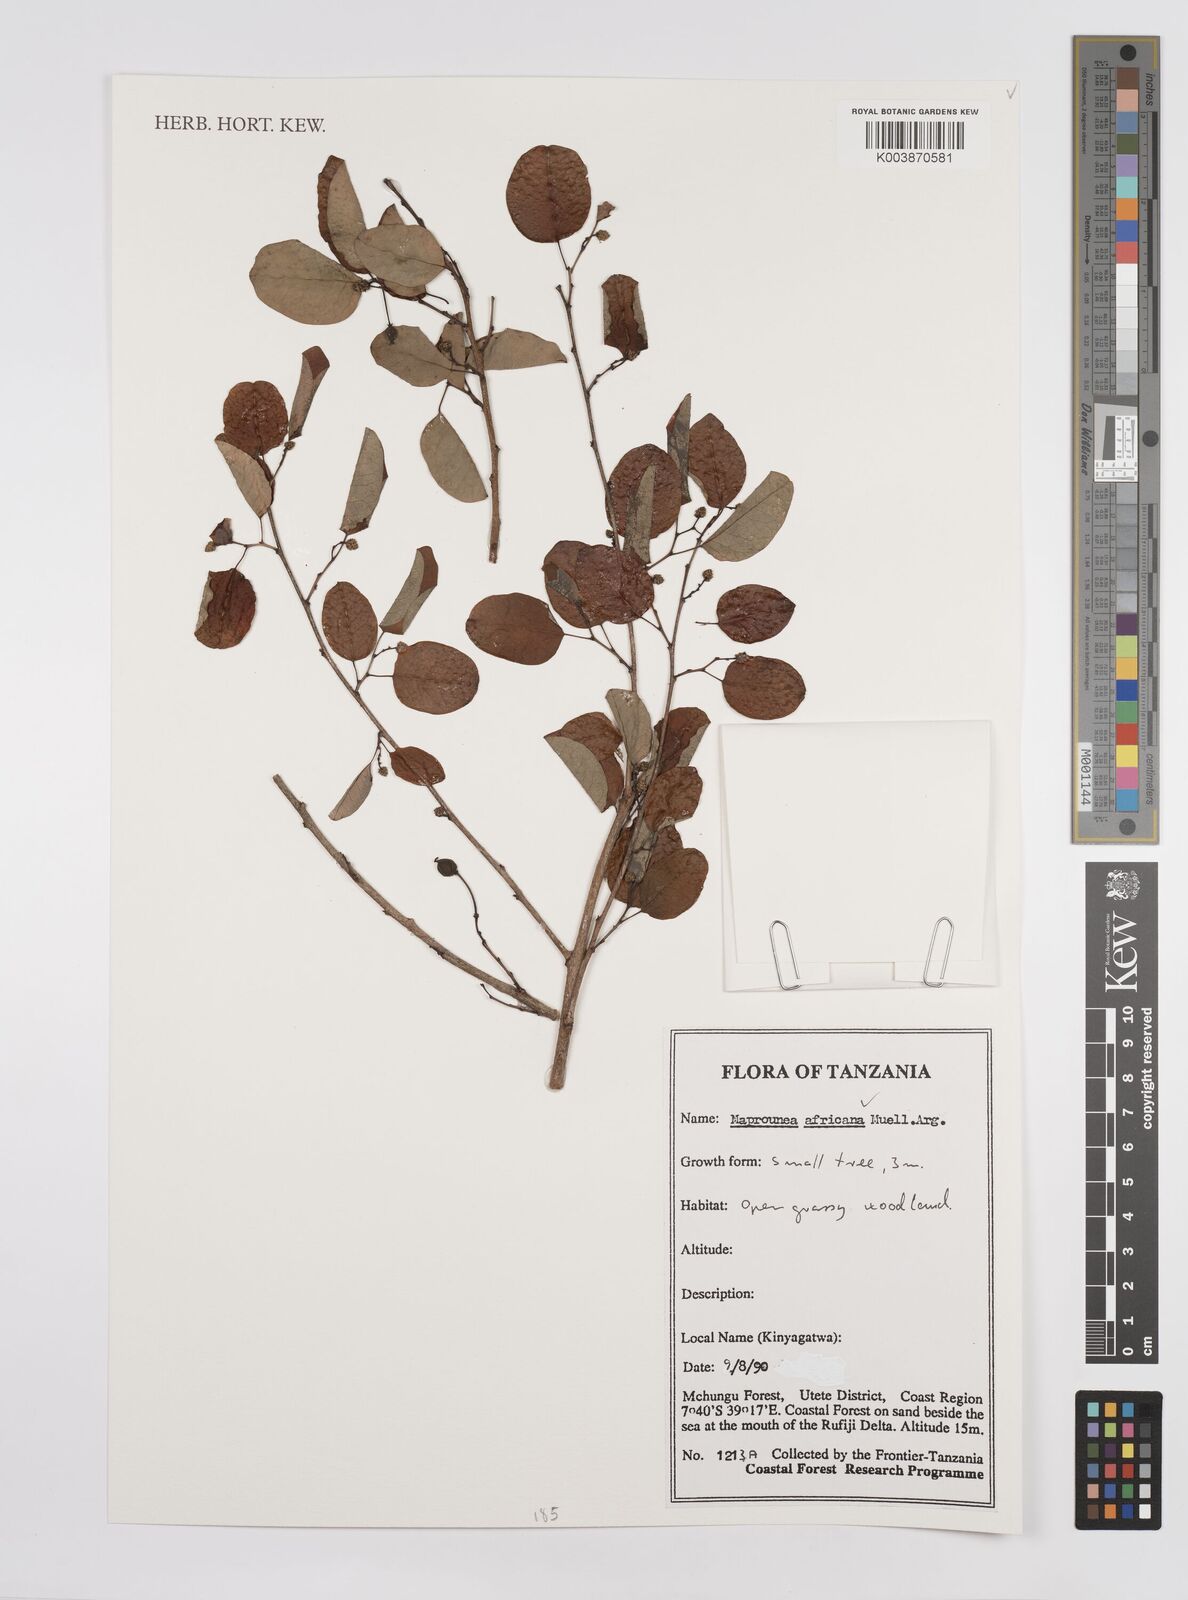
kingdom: Plantae
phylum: Tracheophyta
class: Magnoliopsida
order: Malpighiales
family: Euphorbiaceae
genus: Maprounea
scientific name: Maprounea africana
